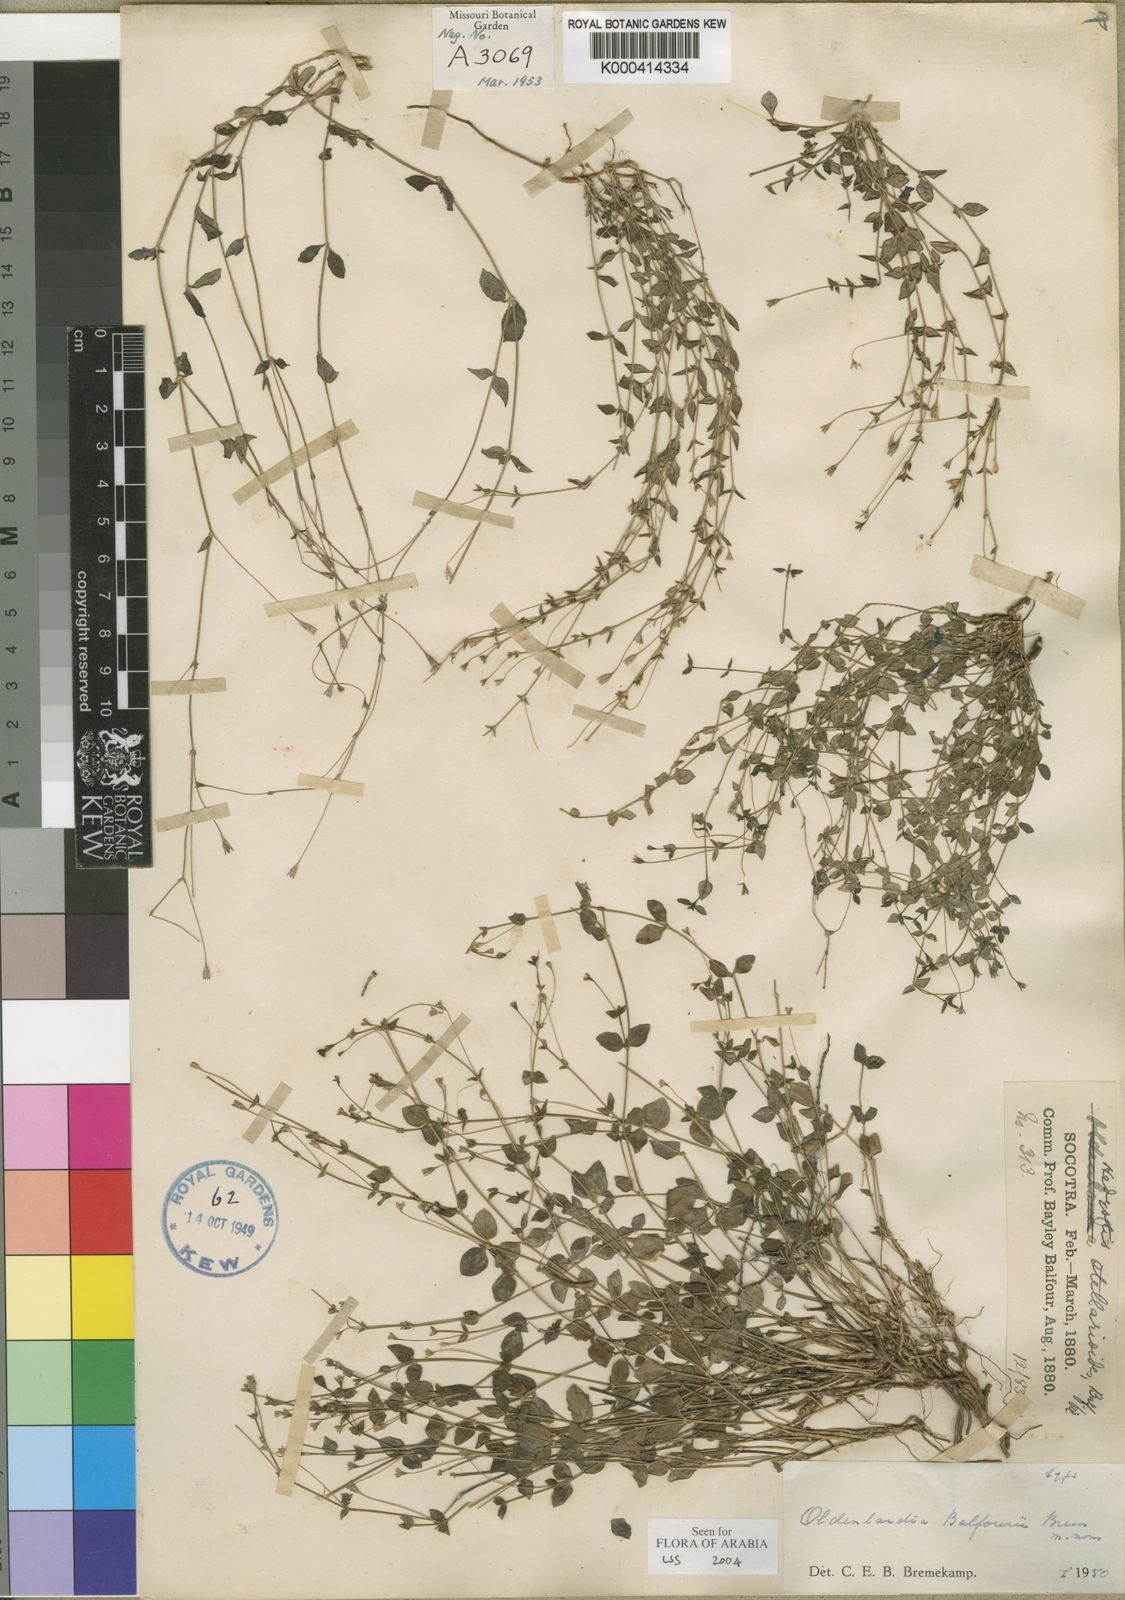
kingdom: Plantae
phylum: Tracheophyta
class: Magnoliopsida
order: Gentianales
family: Rubiaceae
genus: Oldenlandia
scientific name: Oldenlandia balfourii
